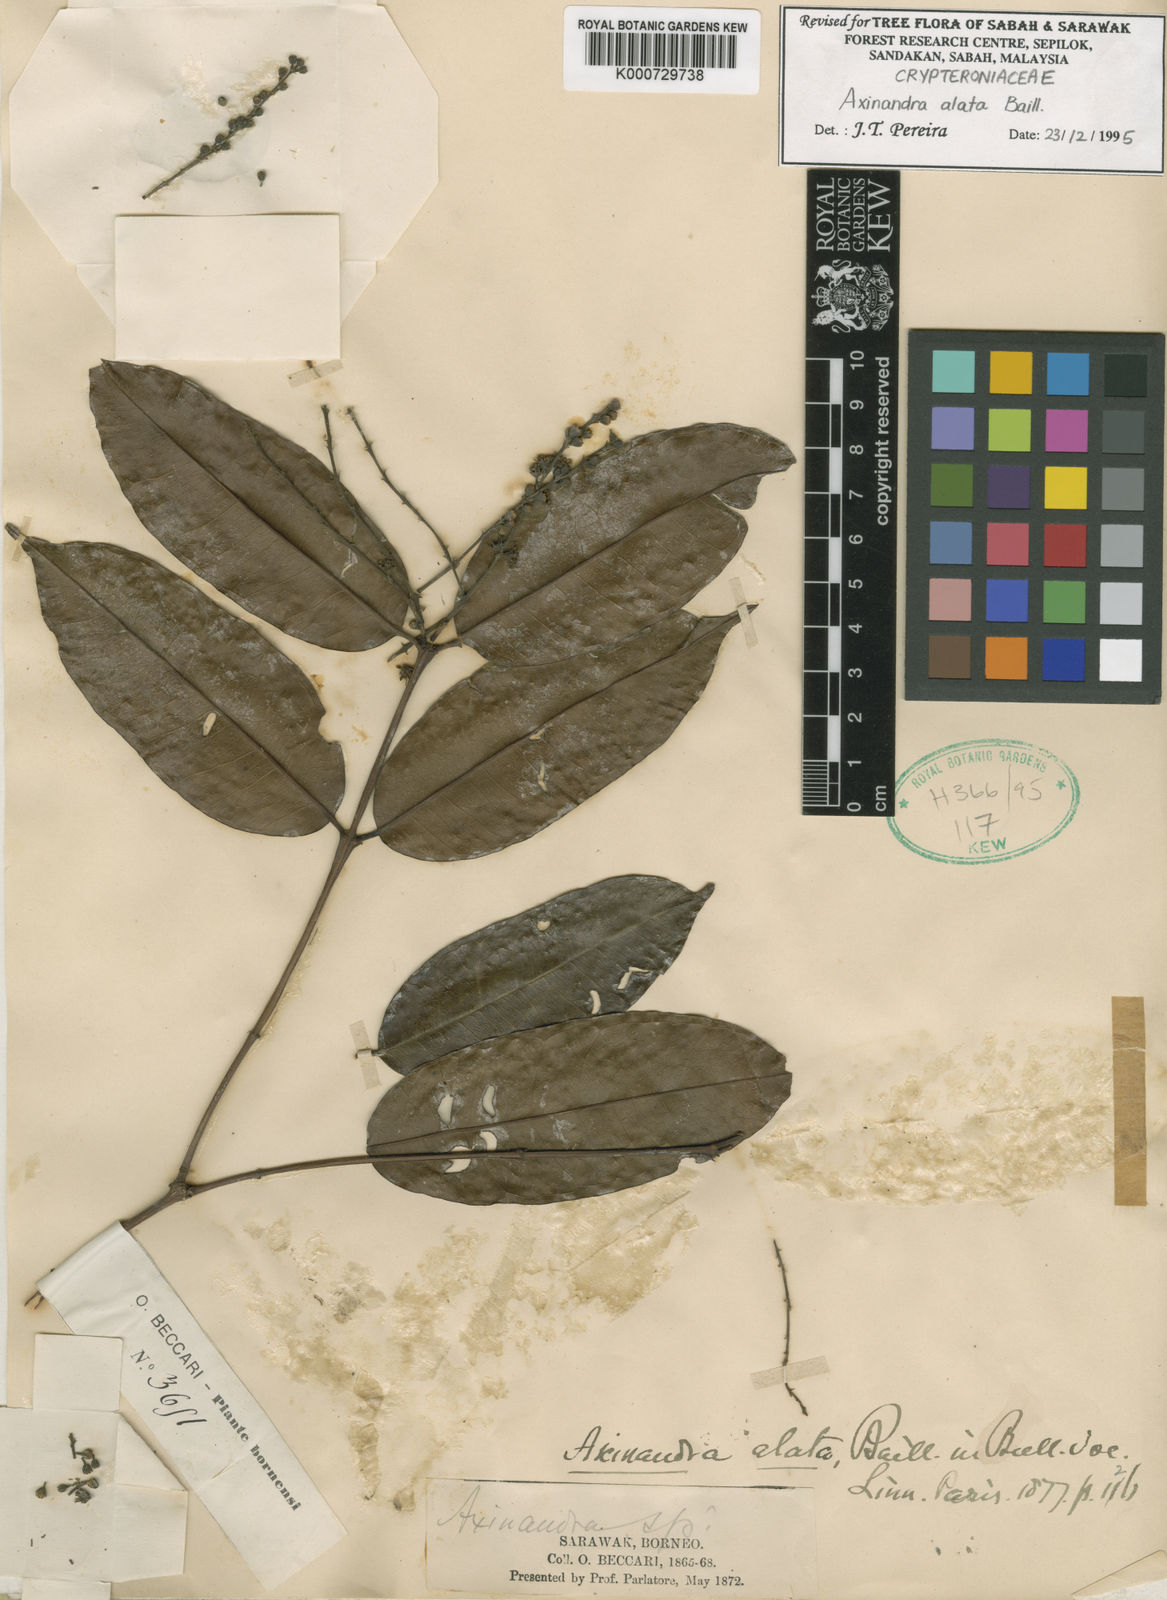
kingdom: Plantae
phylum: Tracheophyta
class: Magnoliopsida
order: Myrtales
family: Crypteroniaceae
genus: Axinandra
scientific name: Axinandra alata
